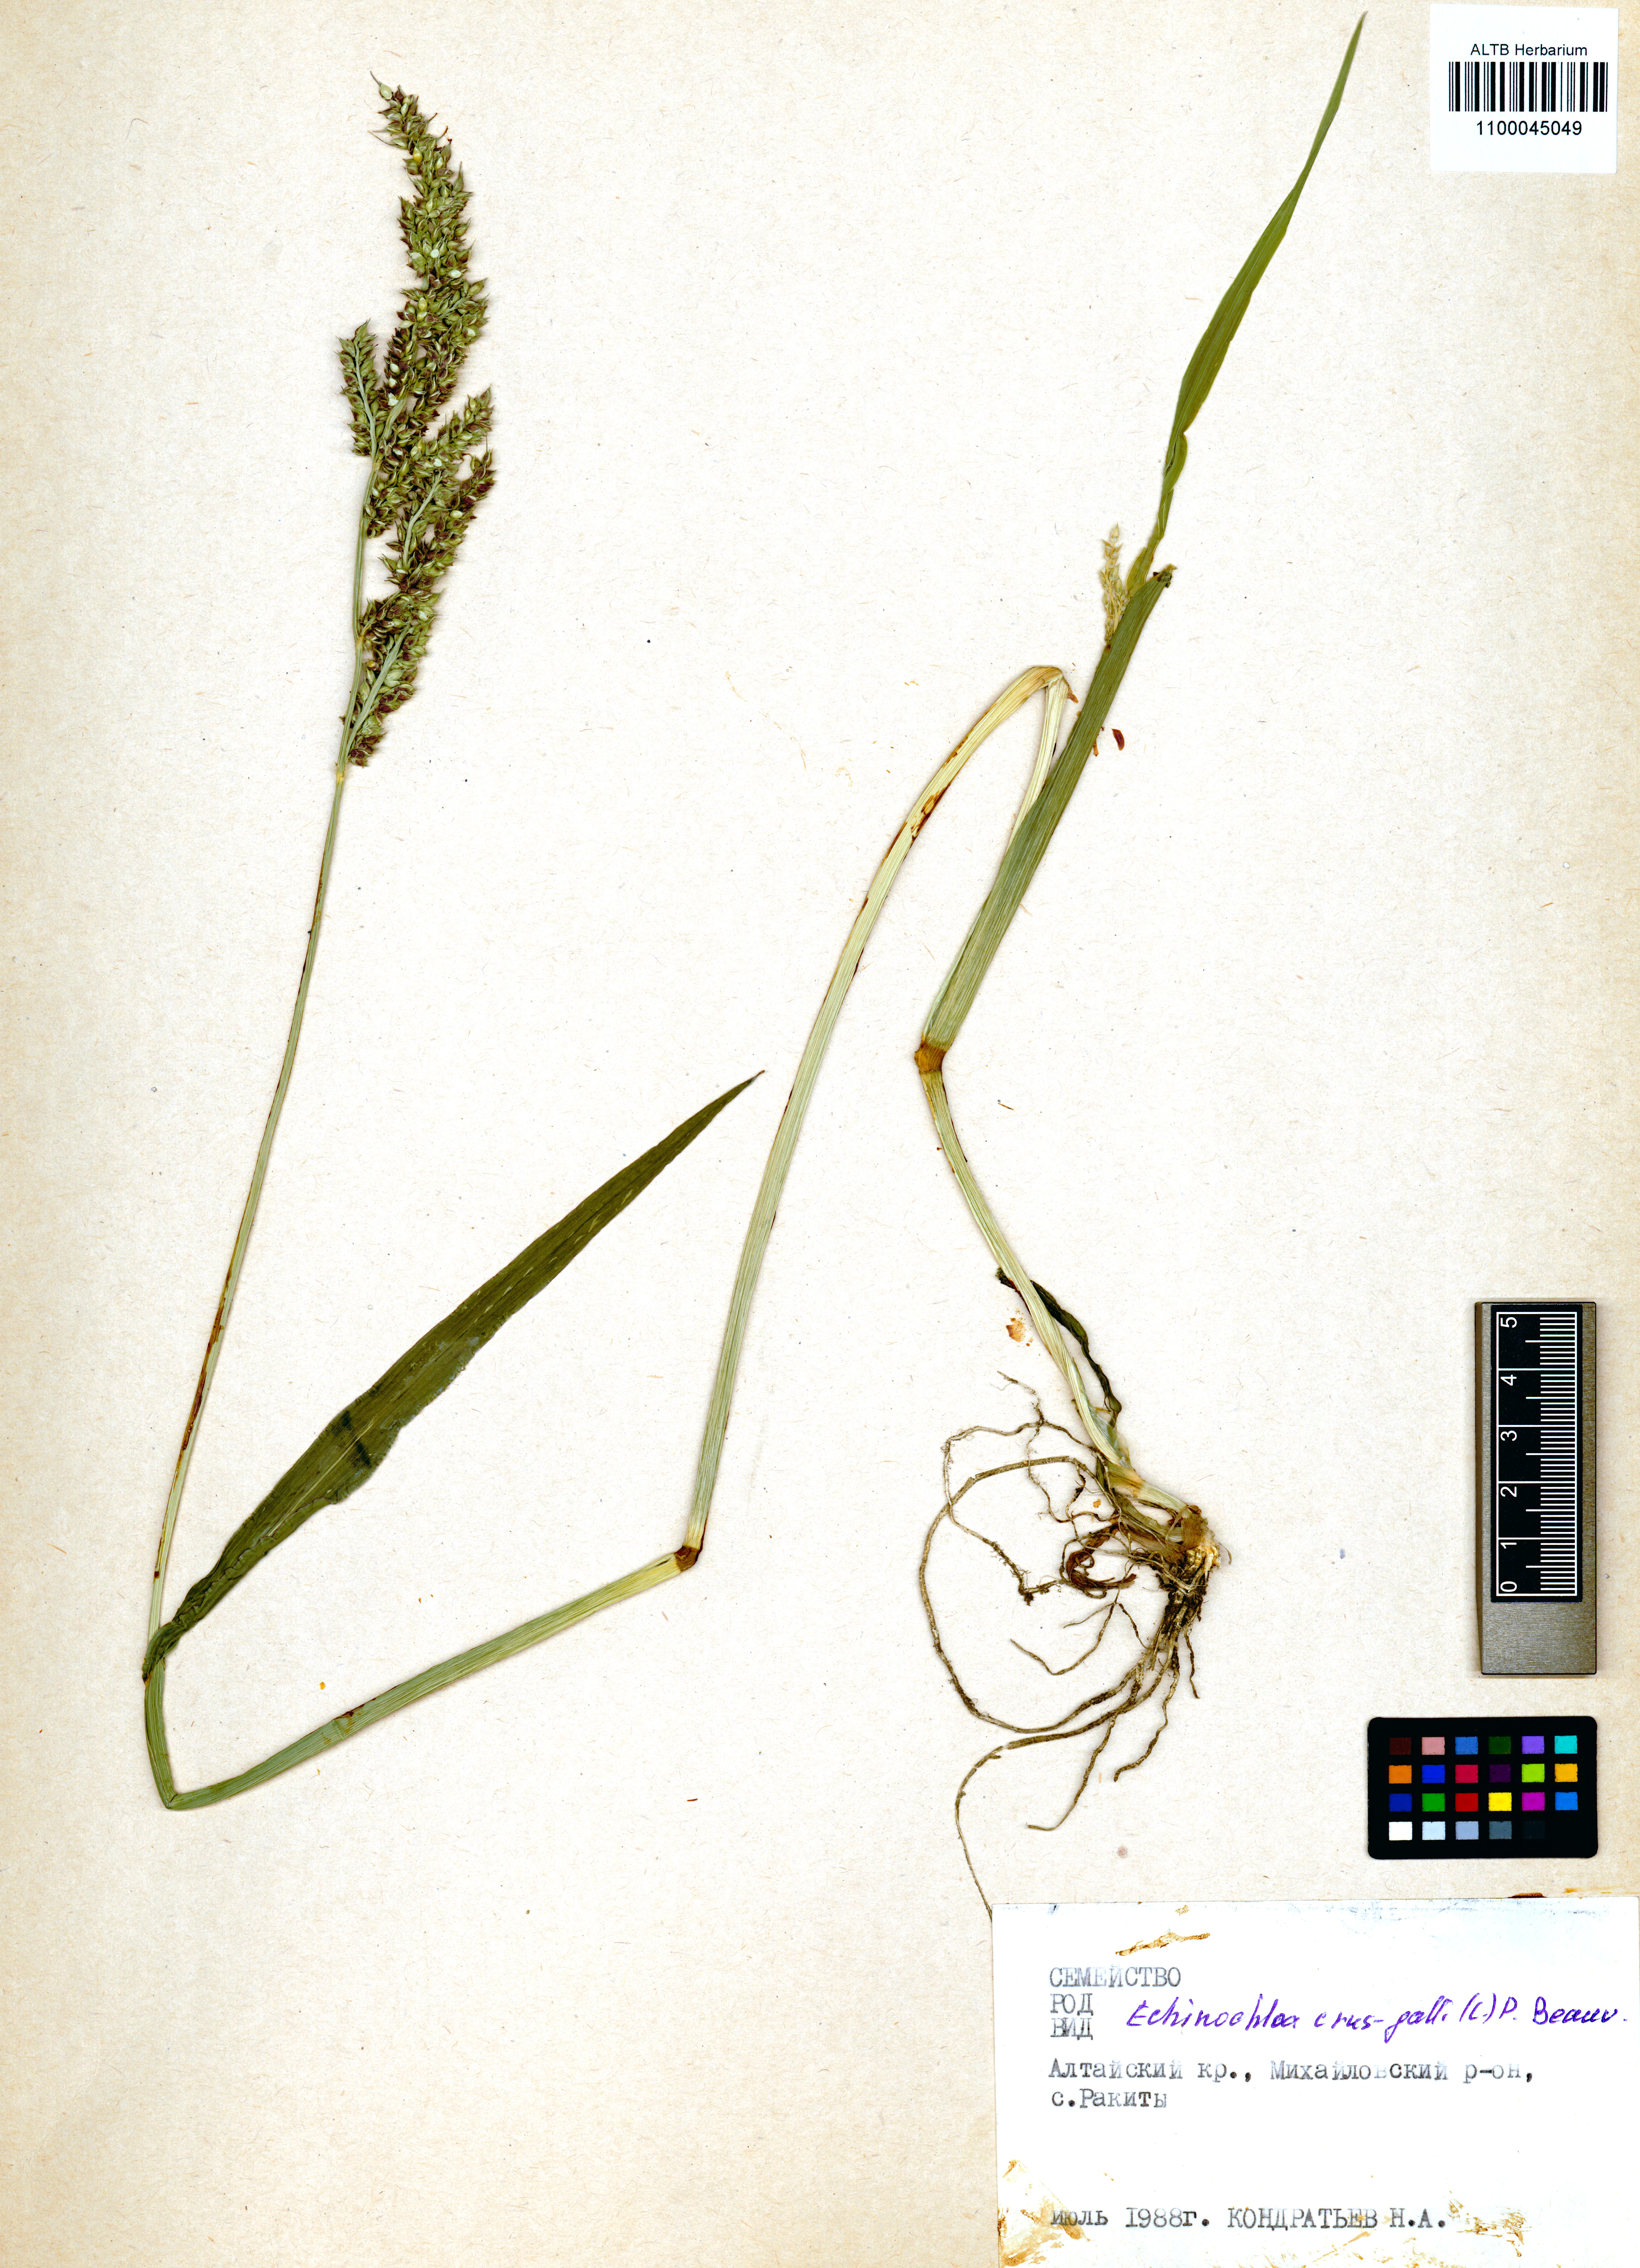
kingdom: Plantae
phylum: Tracheophyta
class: Liliopsida
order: Poales
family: Poaceae
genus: Echinochloa
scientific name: Echinochloa crus-galli
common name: Cockspur
